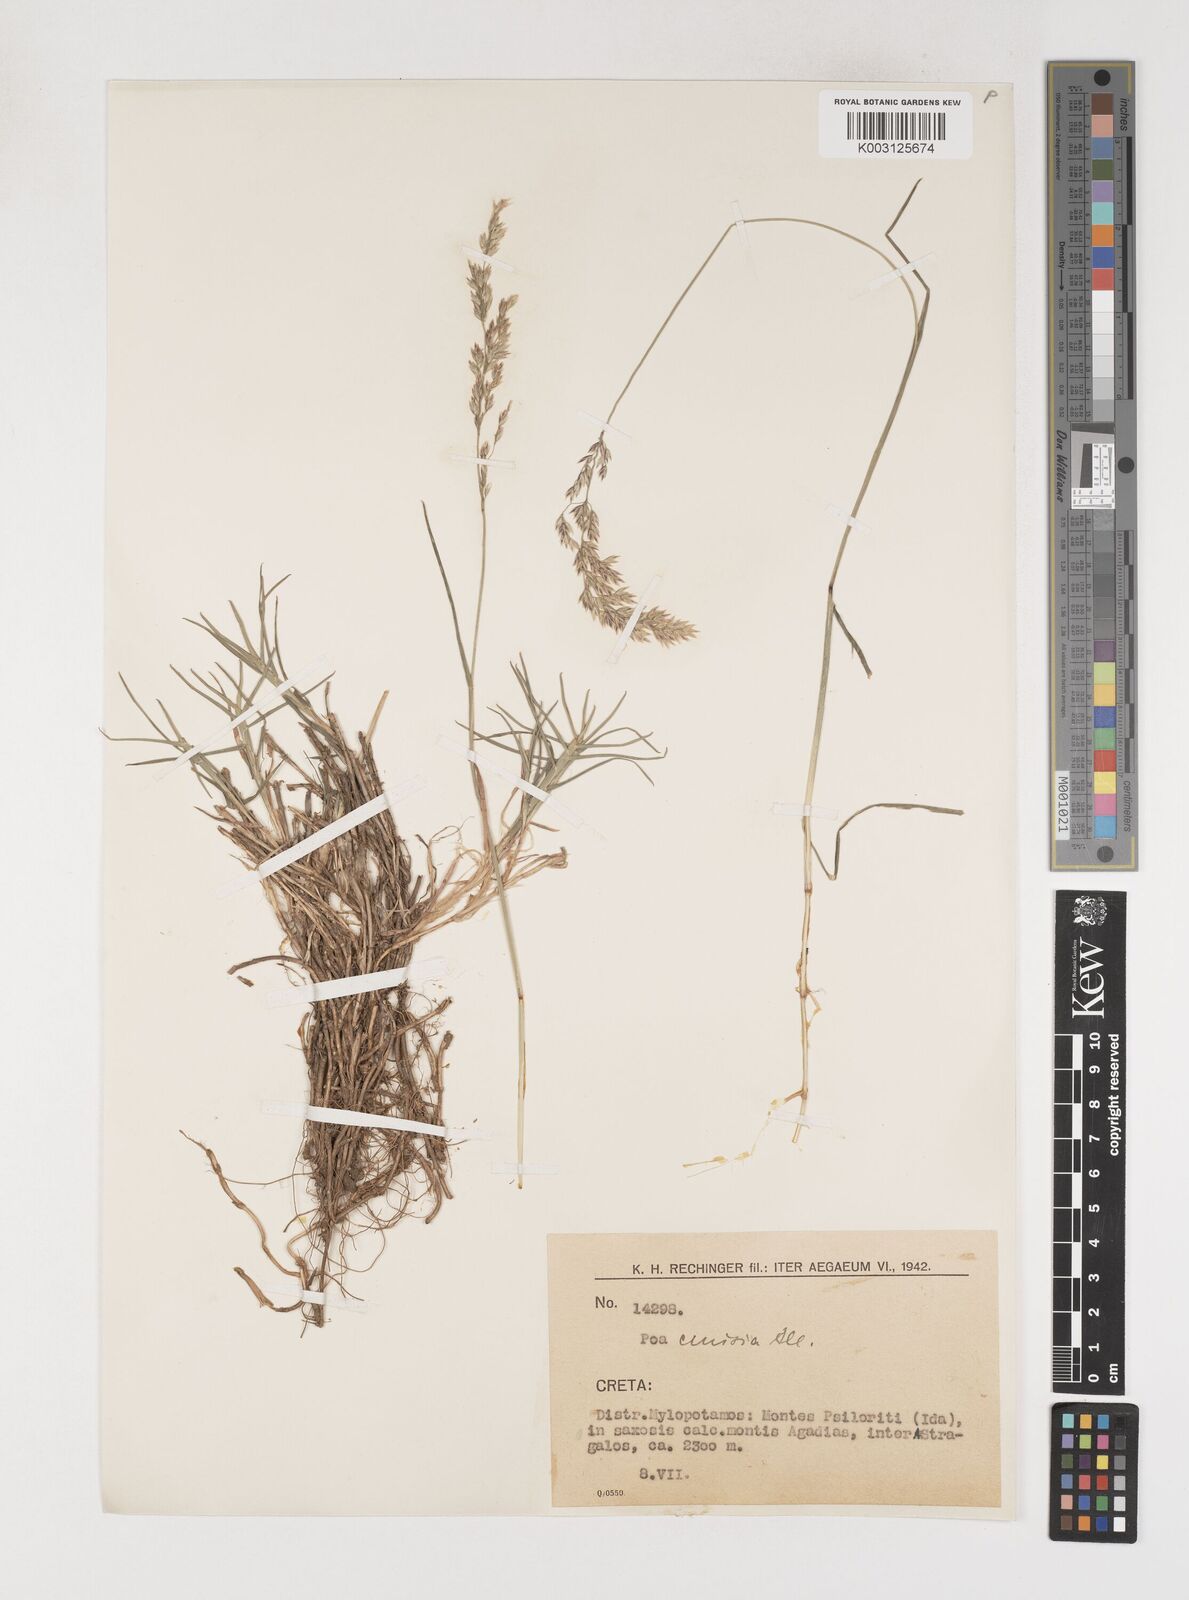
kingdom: Plantae
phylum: Tracheophyta
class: Liliopsida
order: Poales
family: Poaceae
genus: Poa
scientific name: Poa
